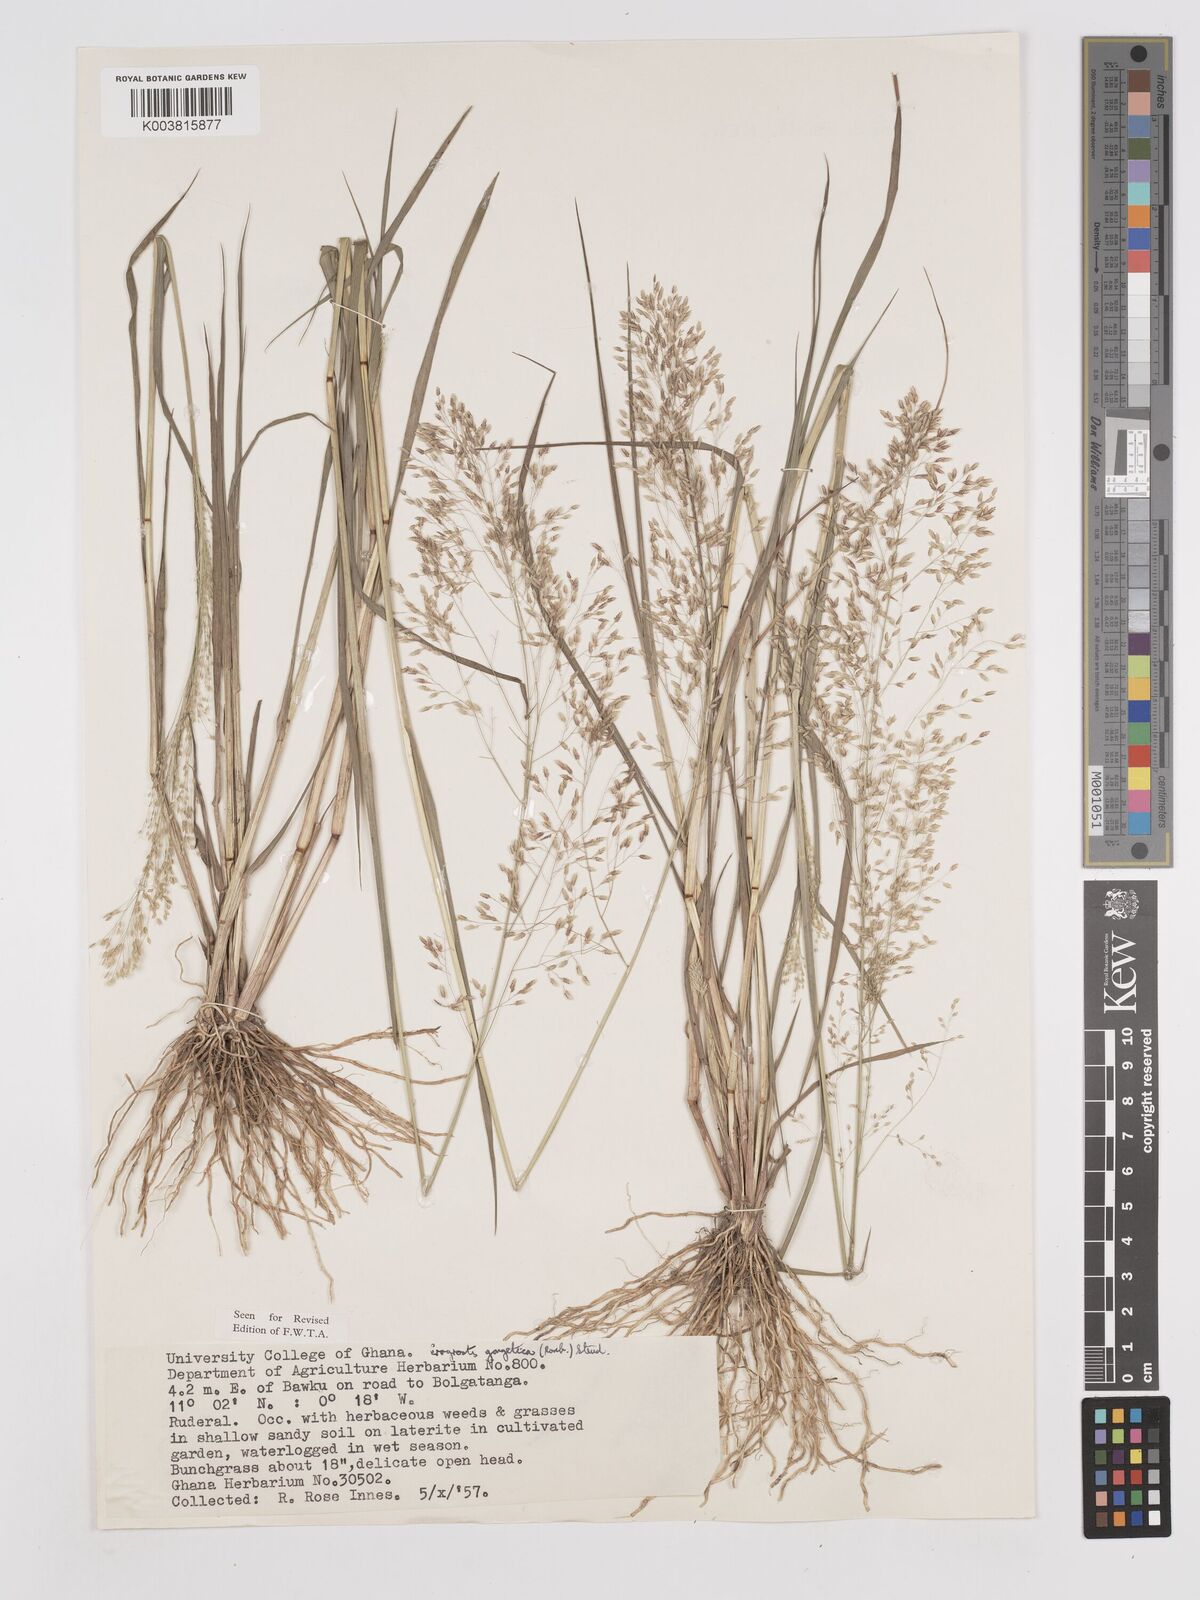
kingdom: Plantae
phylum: Tracheophyta
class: Liliopsida
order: Poales
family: Poaceae
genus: Eragrostis
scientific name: Eragrostis gangetica
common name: Slimflower lovegrass
